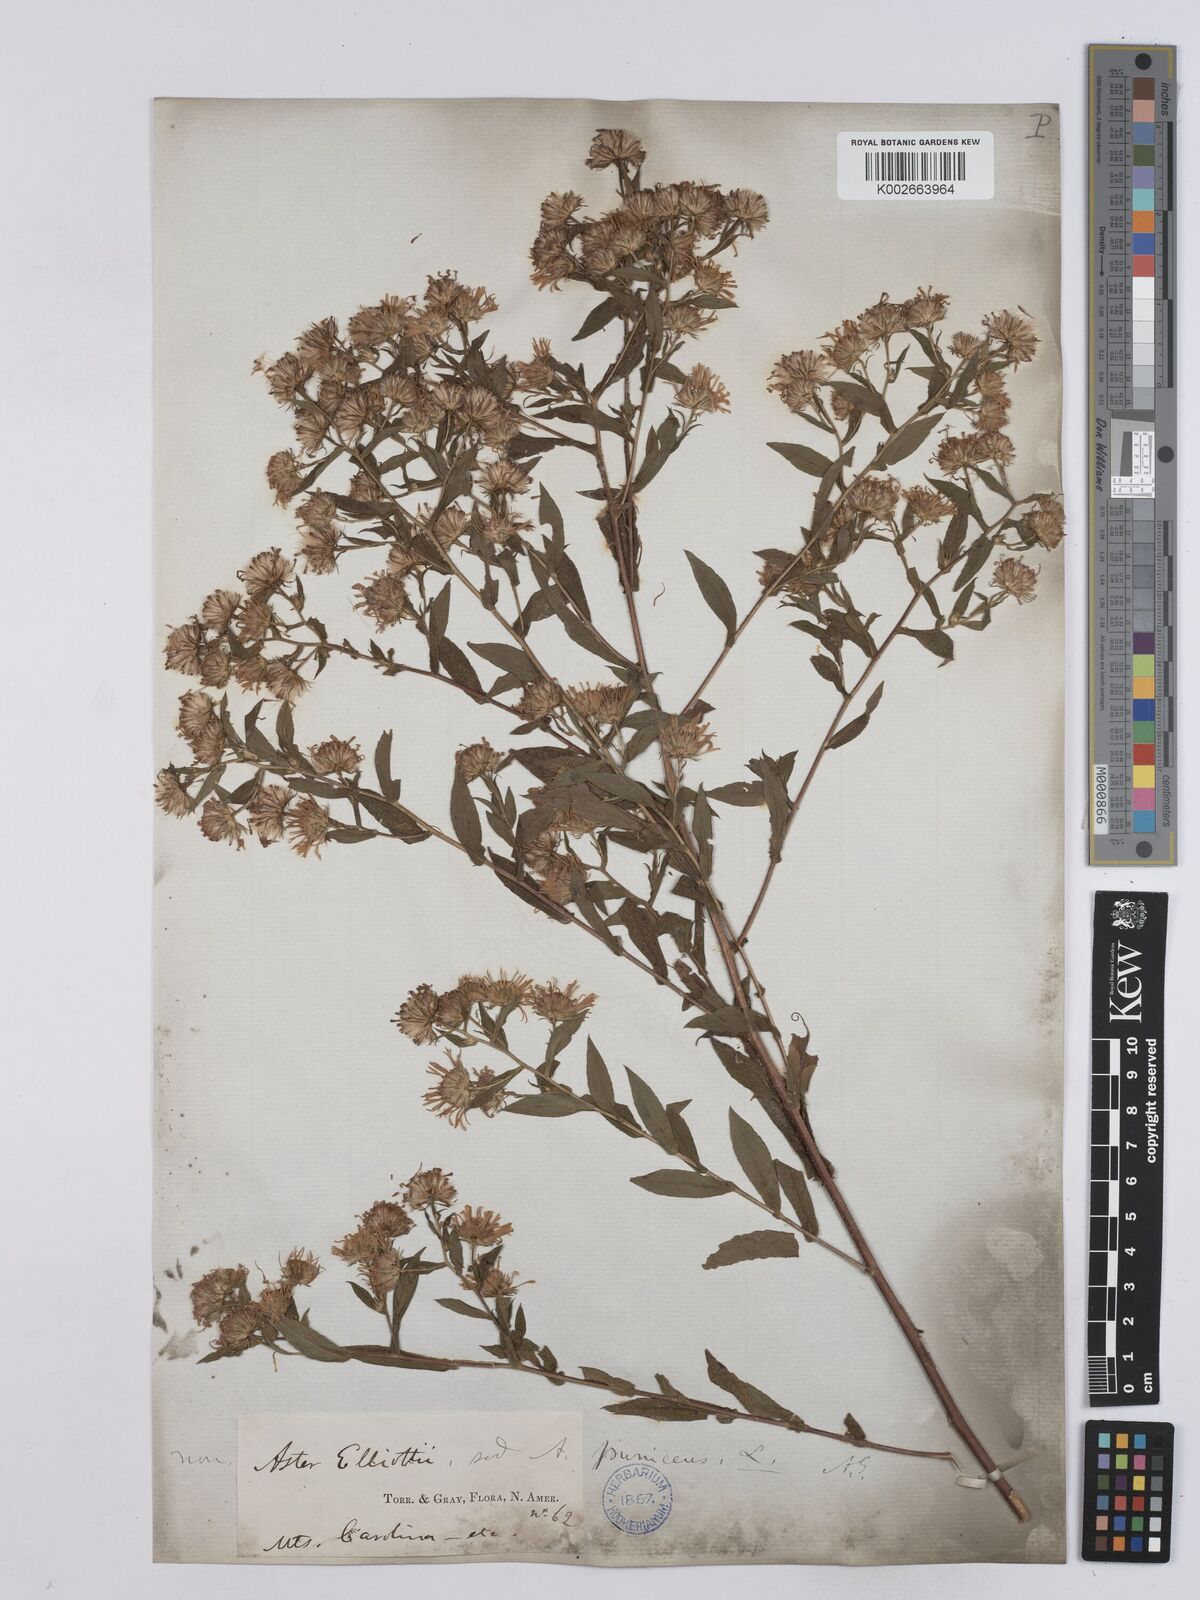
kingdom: Plantae
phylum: Tracheophyta
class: Magnoliopsida
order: Asterales
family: Asteraceae
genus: Symphyotrichum
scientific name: Symphyotrichum puniceum
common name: Bog aster
